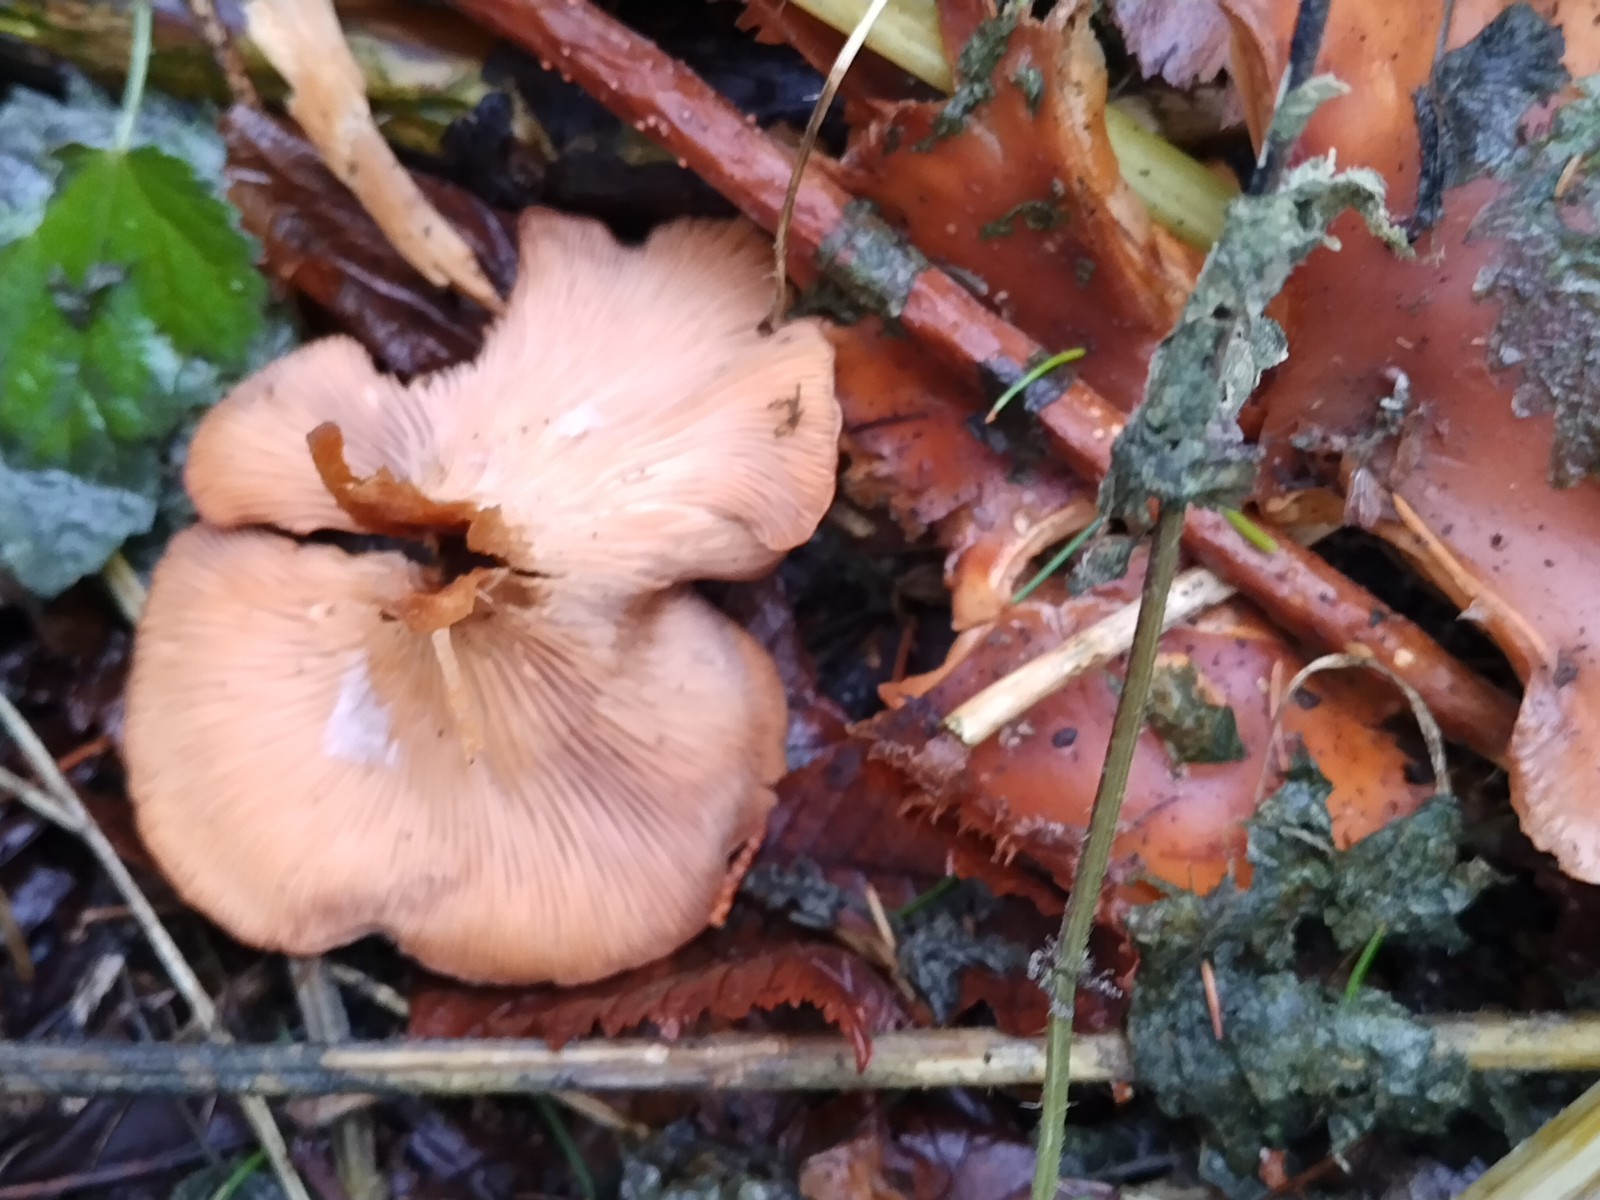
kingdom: Fungi
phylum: Basidiomycota
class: Agaricomycetes
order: Agaricales
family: Tricholomataceae
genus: Paralepista
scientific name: Paralepista flaccida
